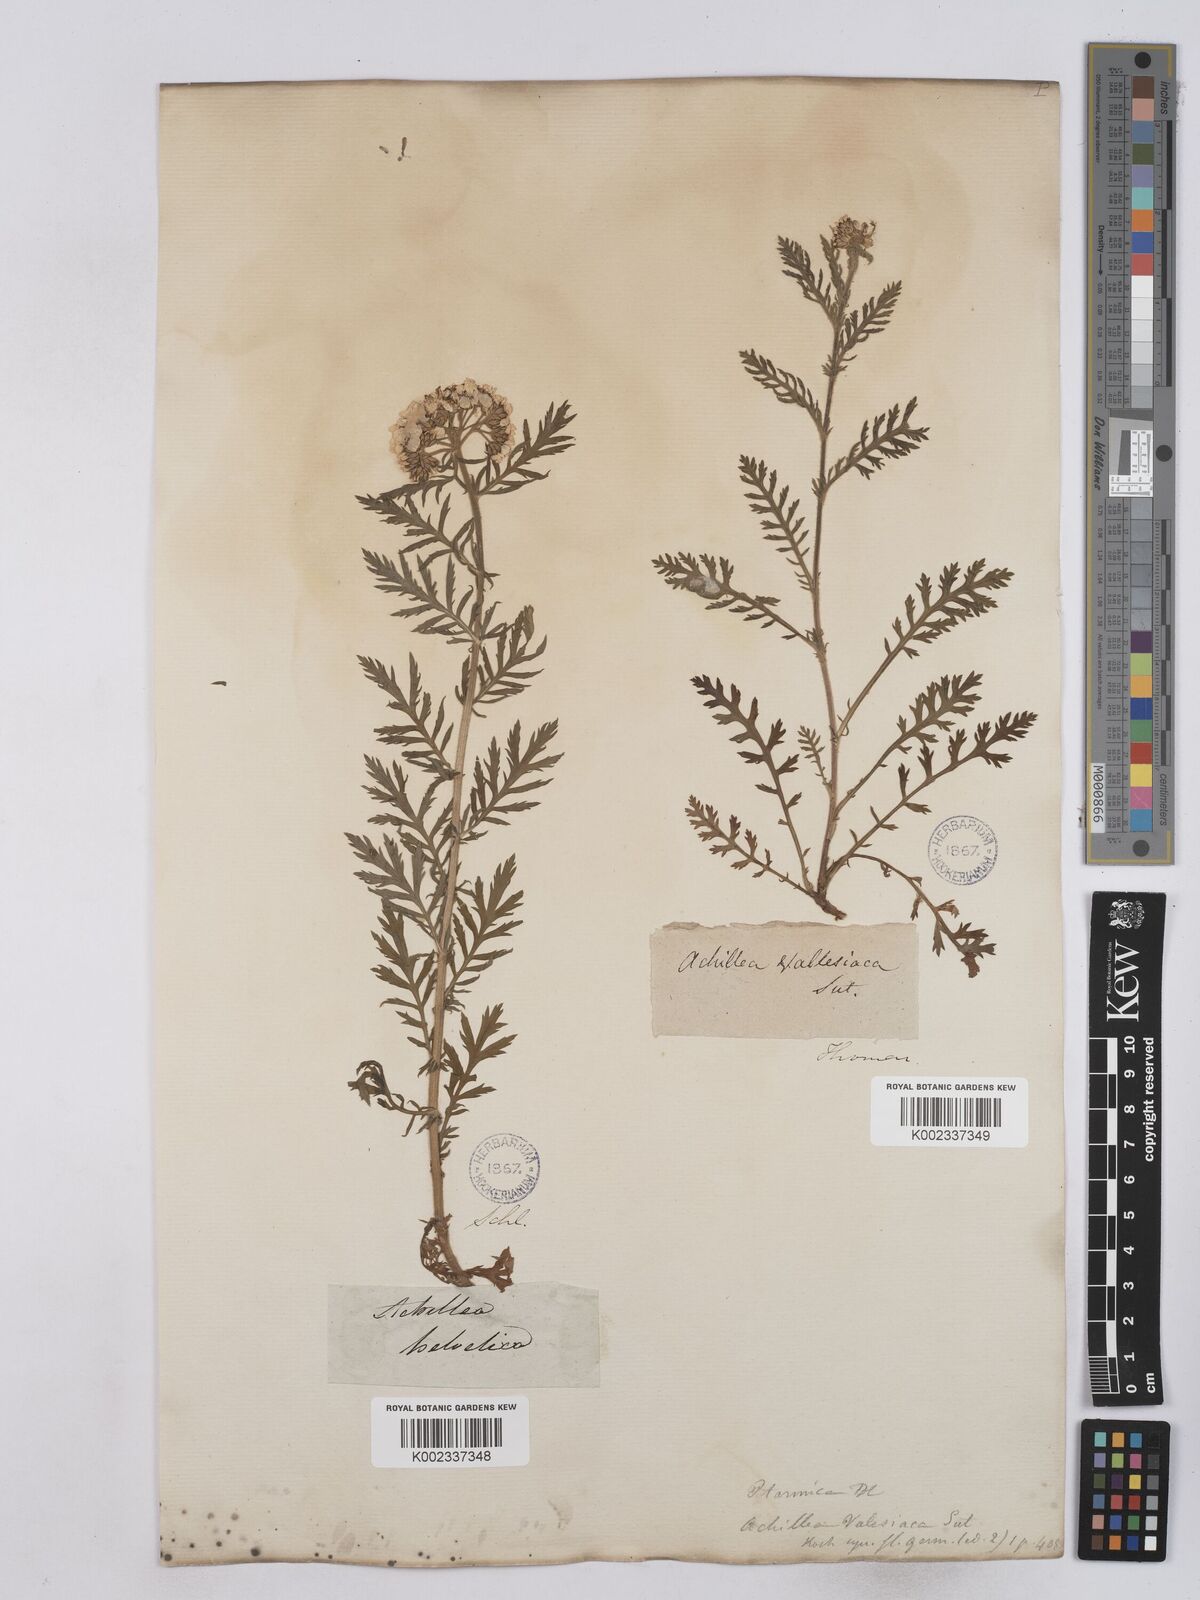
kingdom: Plantae
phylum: Tracheophyta
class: Magnoliopsida
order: Asterales
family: Asteraceae
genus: Achillea
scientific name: Achillea valesiaca
